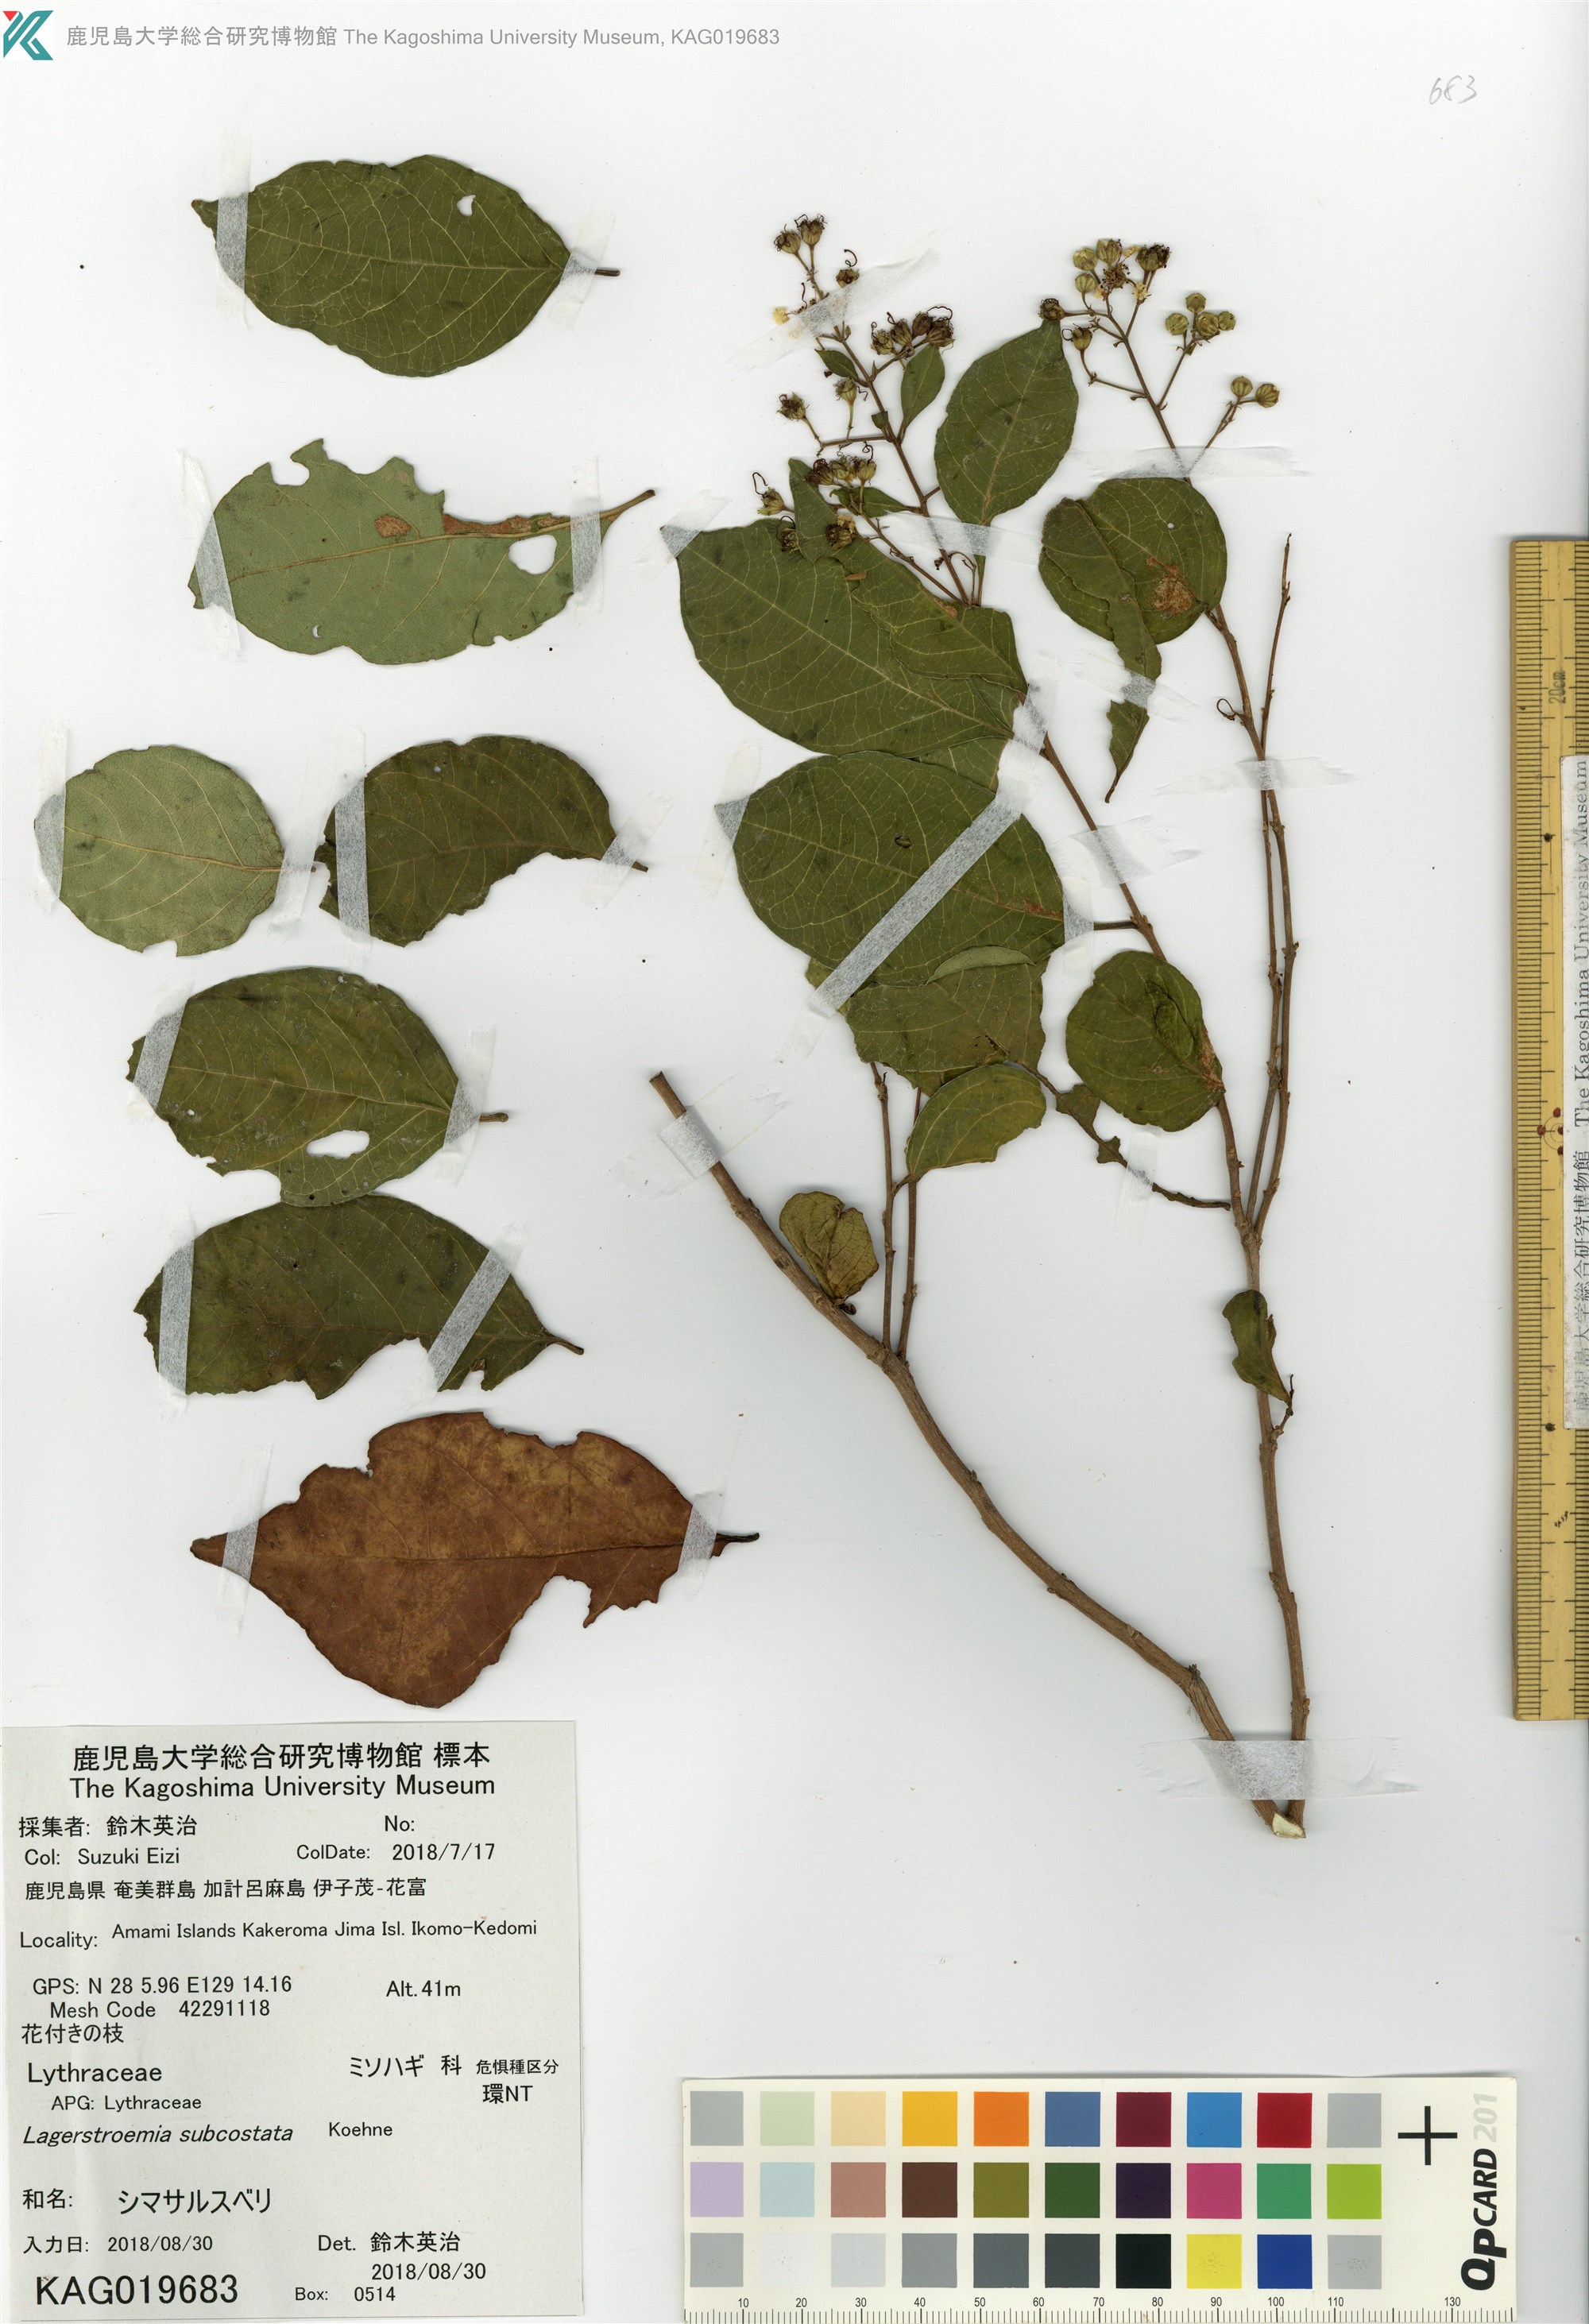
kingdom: Plantae
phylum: Tracheophyta
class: Magnoliopsida
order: Myrtales
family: Lythraceae
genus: Lagerstroemia
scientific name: Lagerstroemia subcostata
